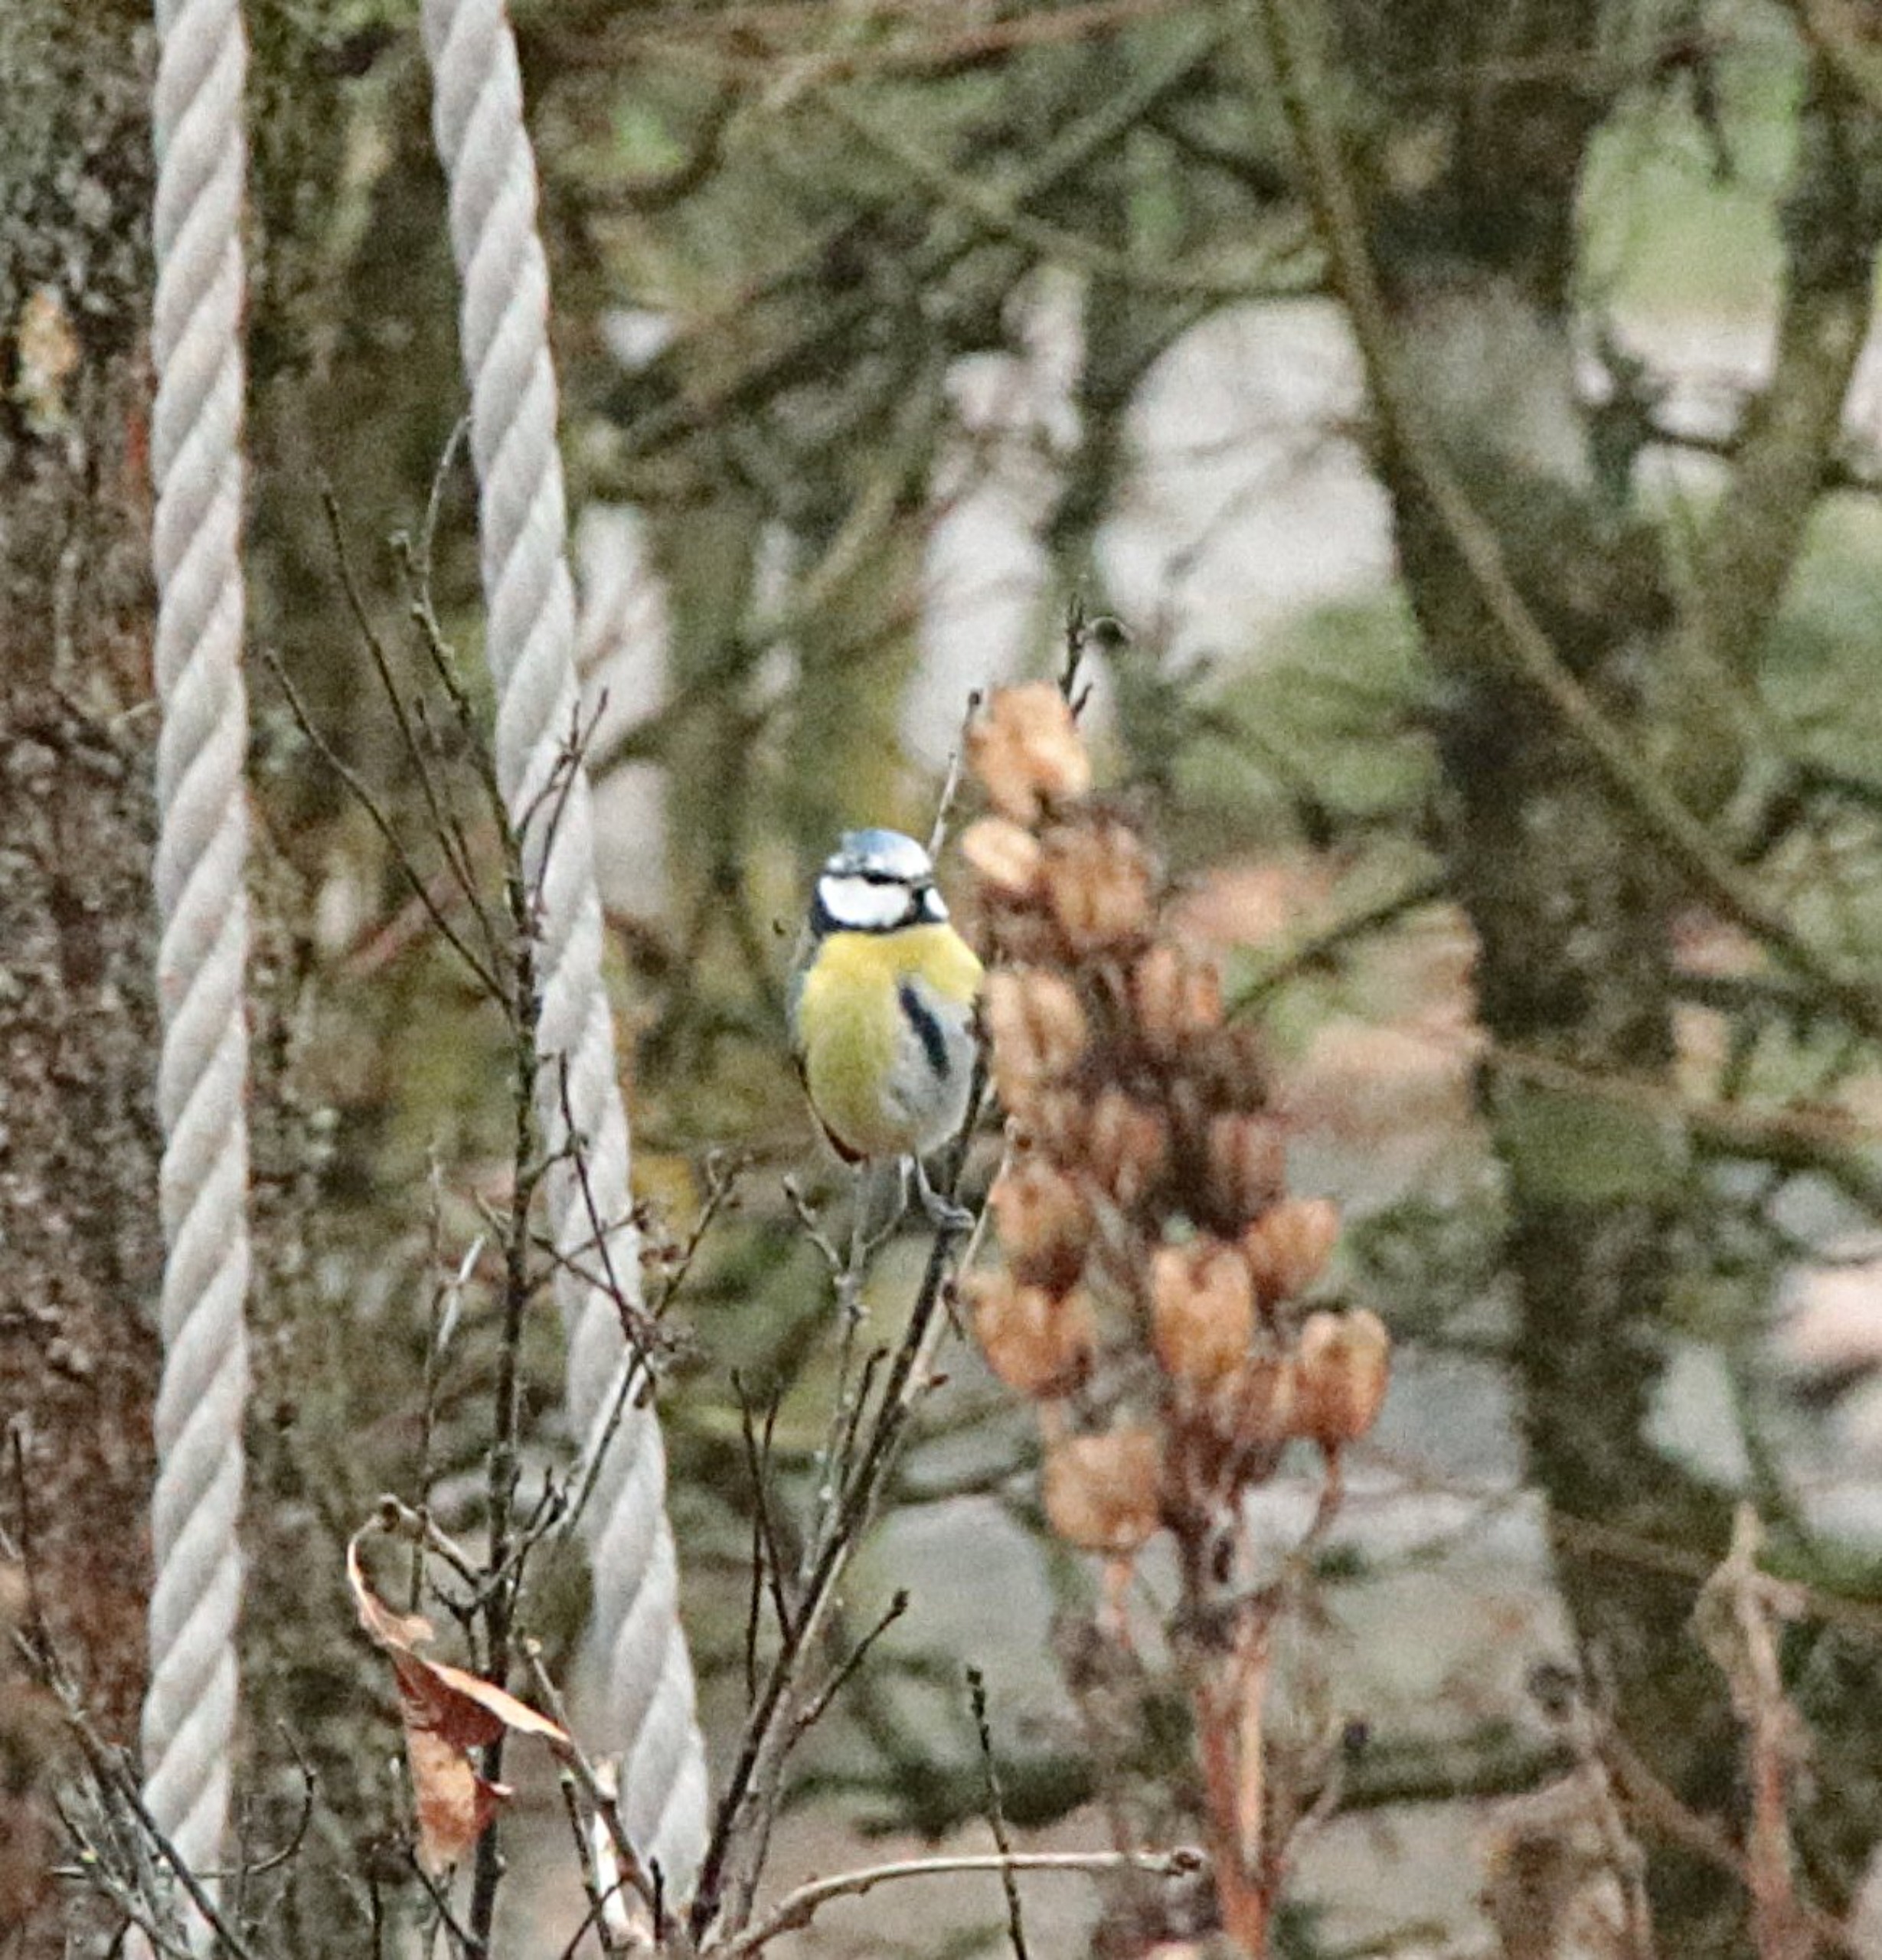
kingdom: Animalia
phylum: Chordata
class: Aves
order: Passeriformes
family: Paridae
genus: Cyanistes
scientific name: Cyanistes caeruleus
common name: Blåmejse
